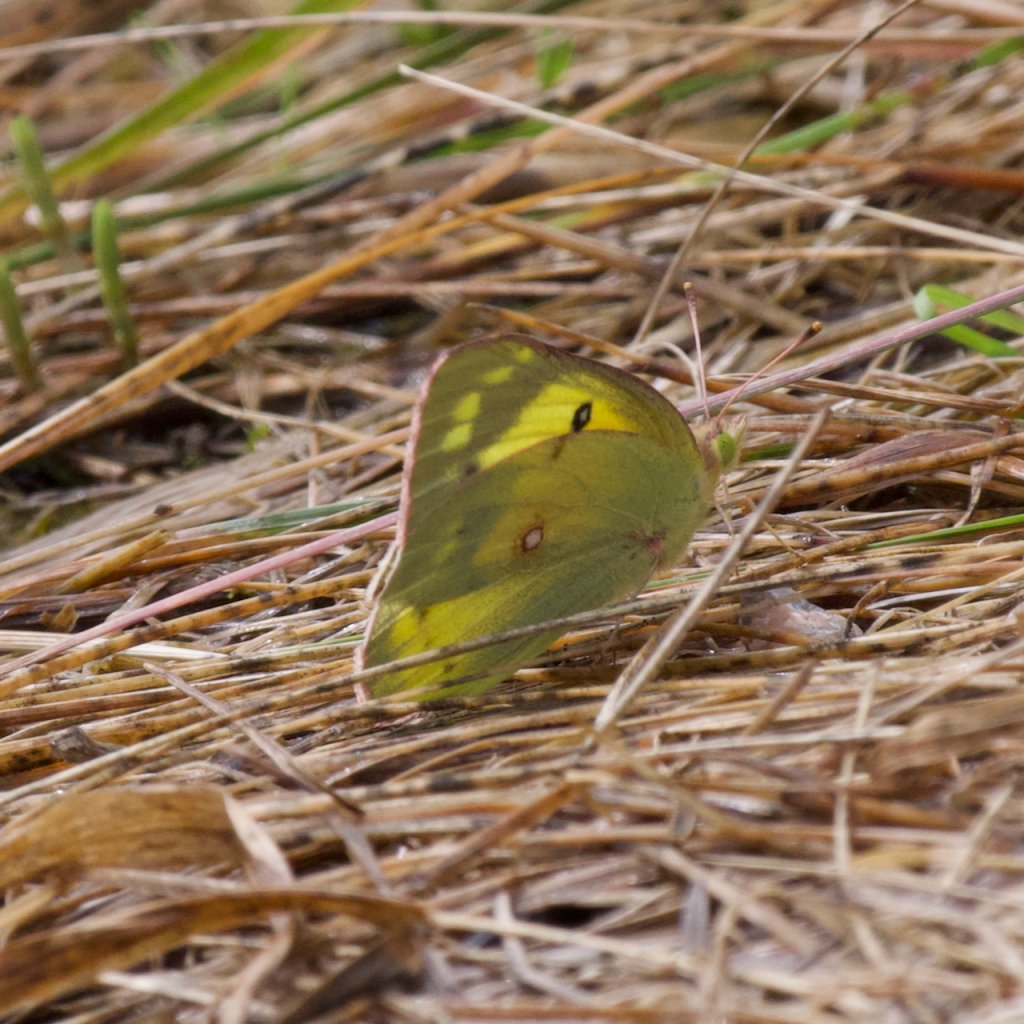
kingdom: Animalia
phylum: Arthropoda
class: Insecta
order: Lepidoptera
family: Pieridae
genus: Colias
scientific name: Colias philodice
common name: Clouded Sulphur
